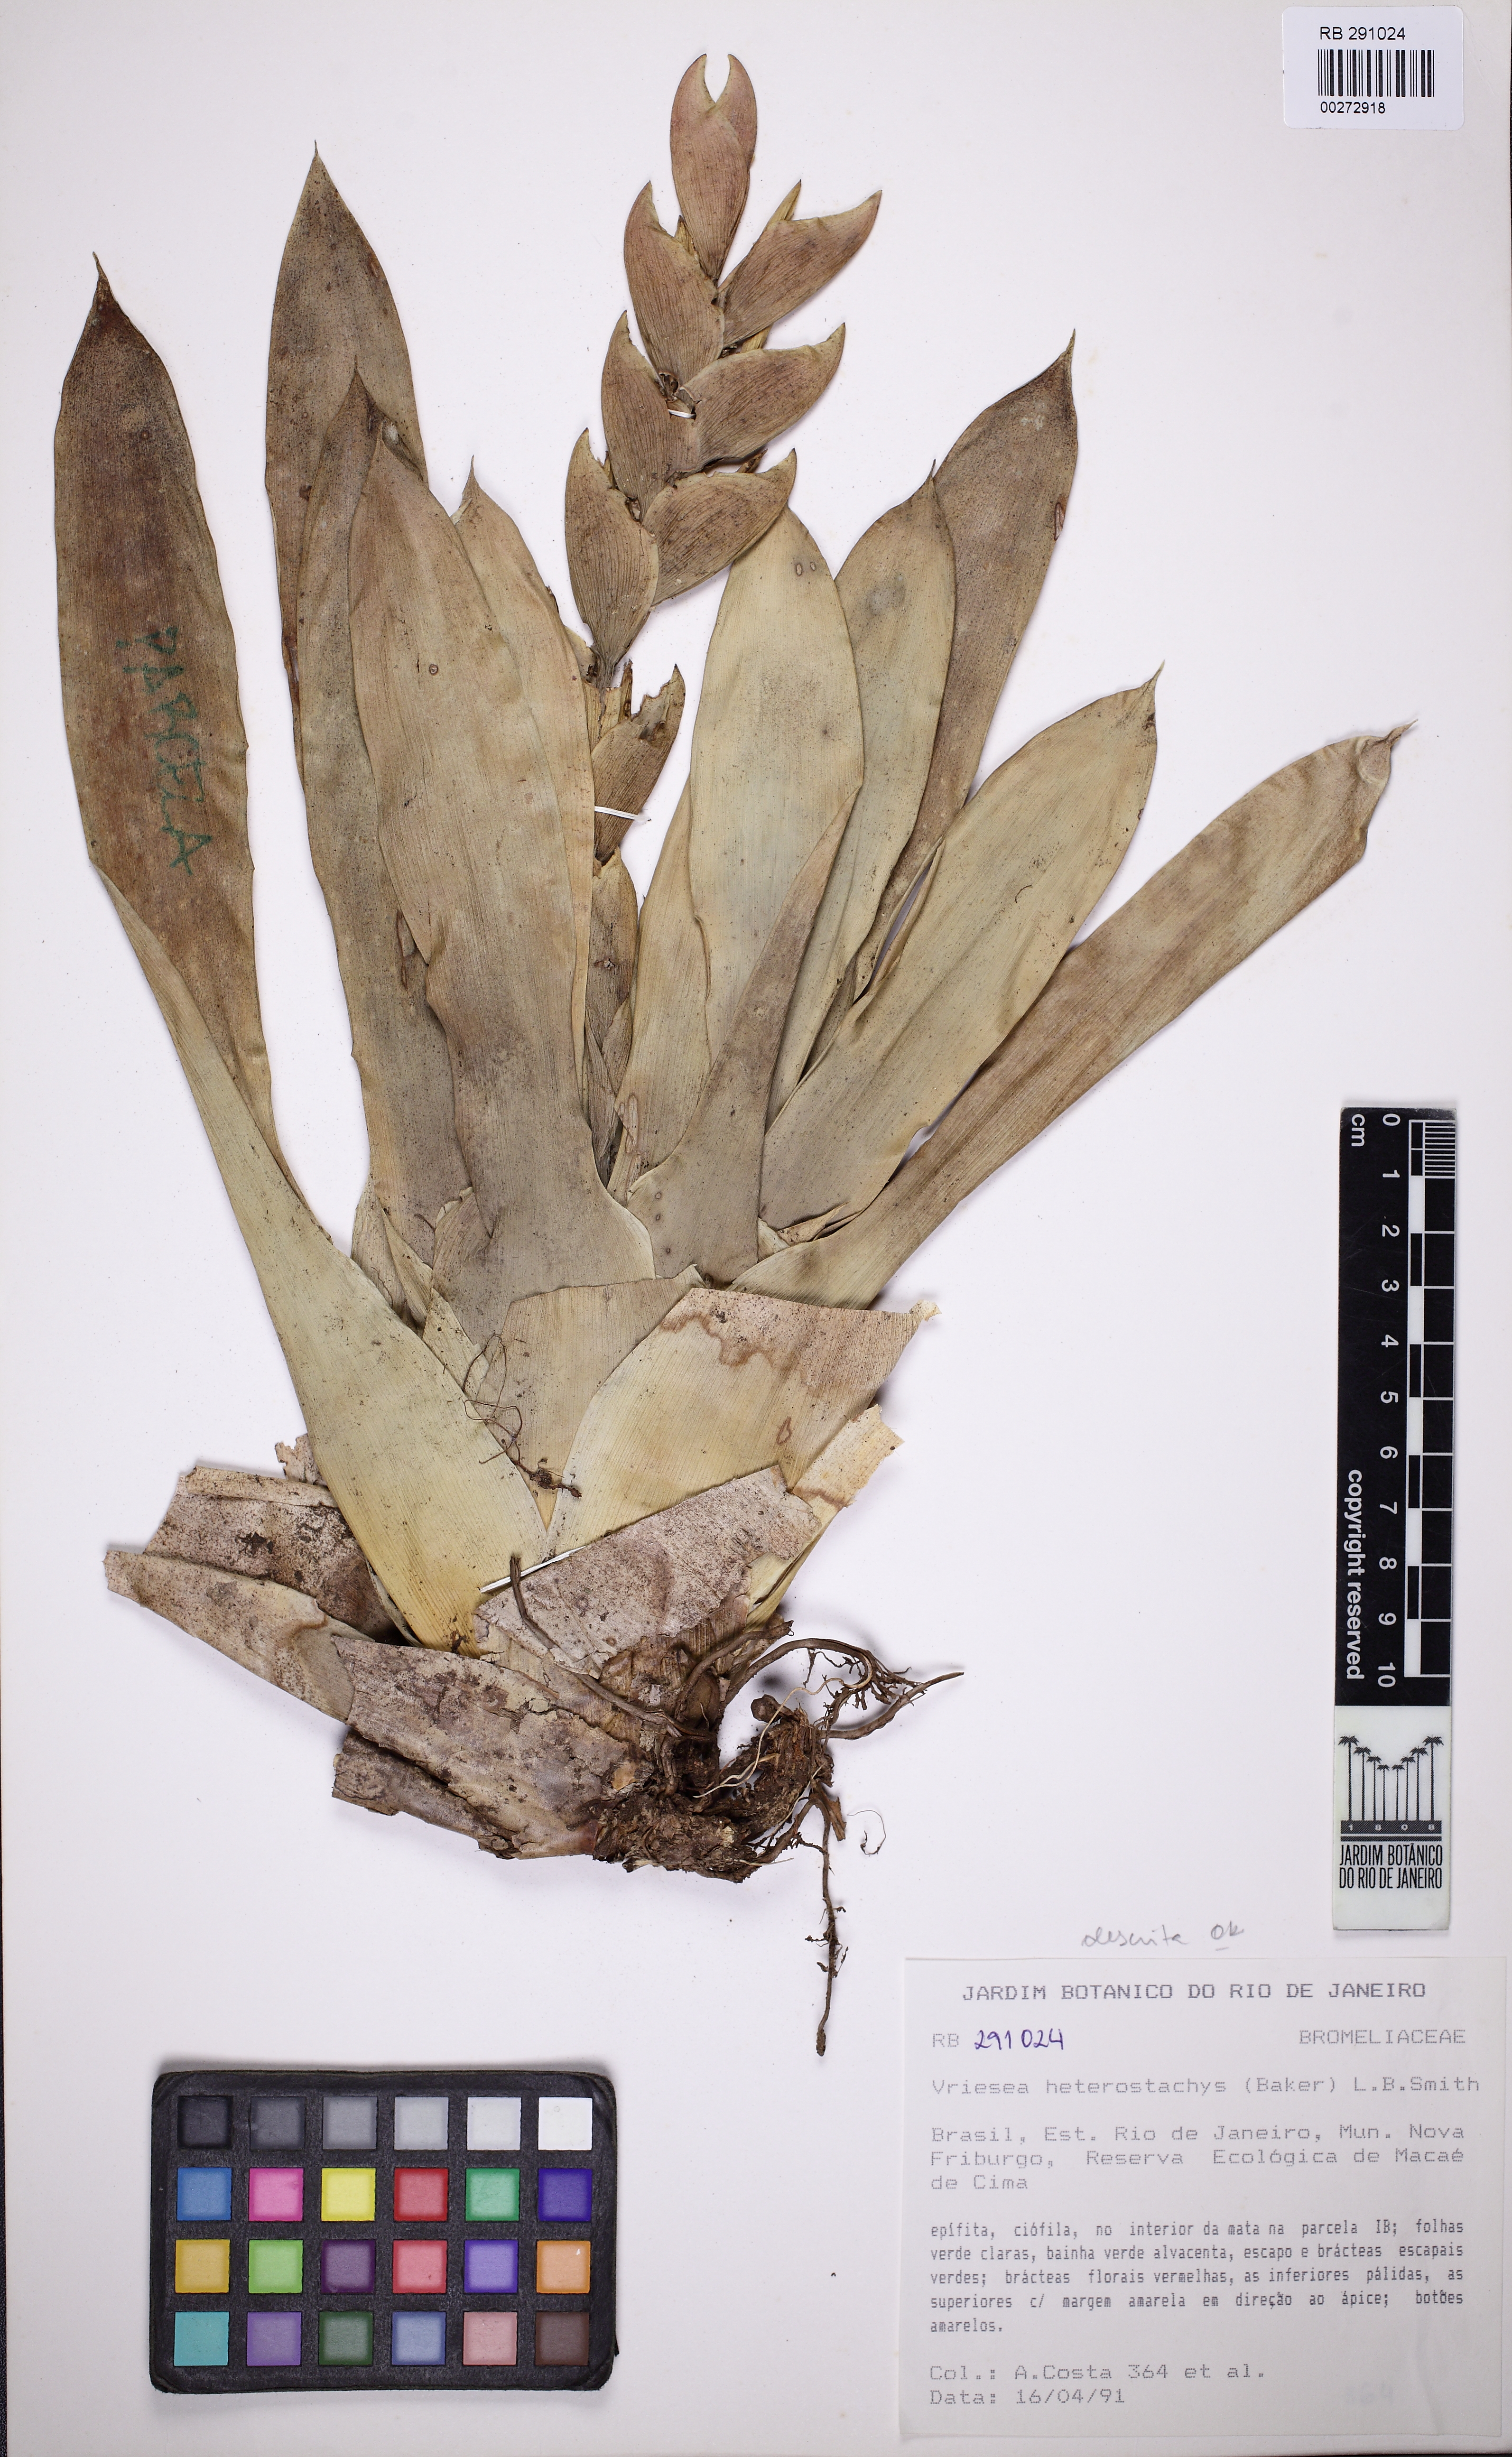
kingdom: Plantae
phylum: Tracheophyta
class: Liliopsida
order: Poales
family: Bromeliaceae
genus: Vriesea
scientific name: Vriesea heterostachys
